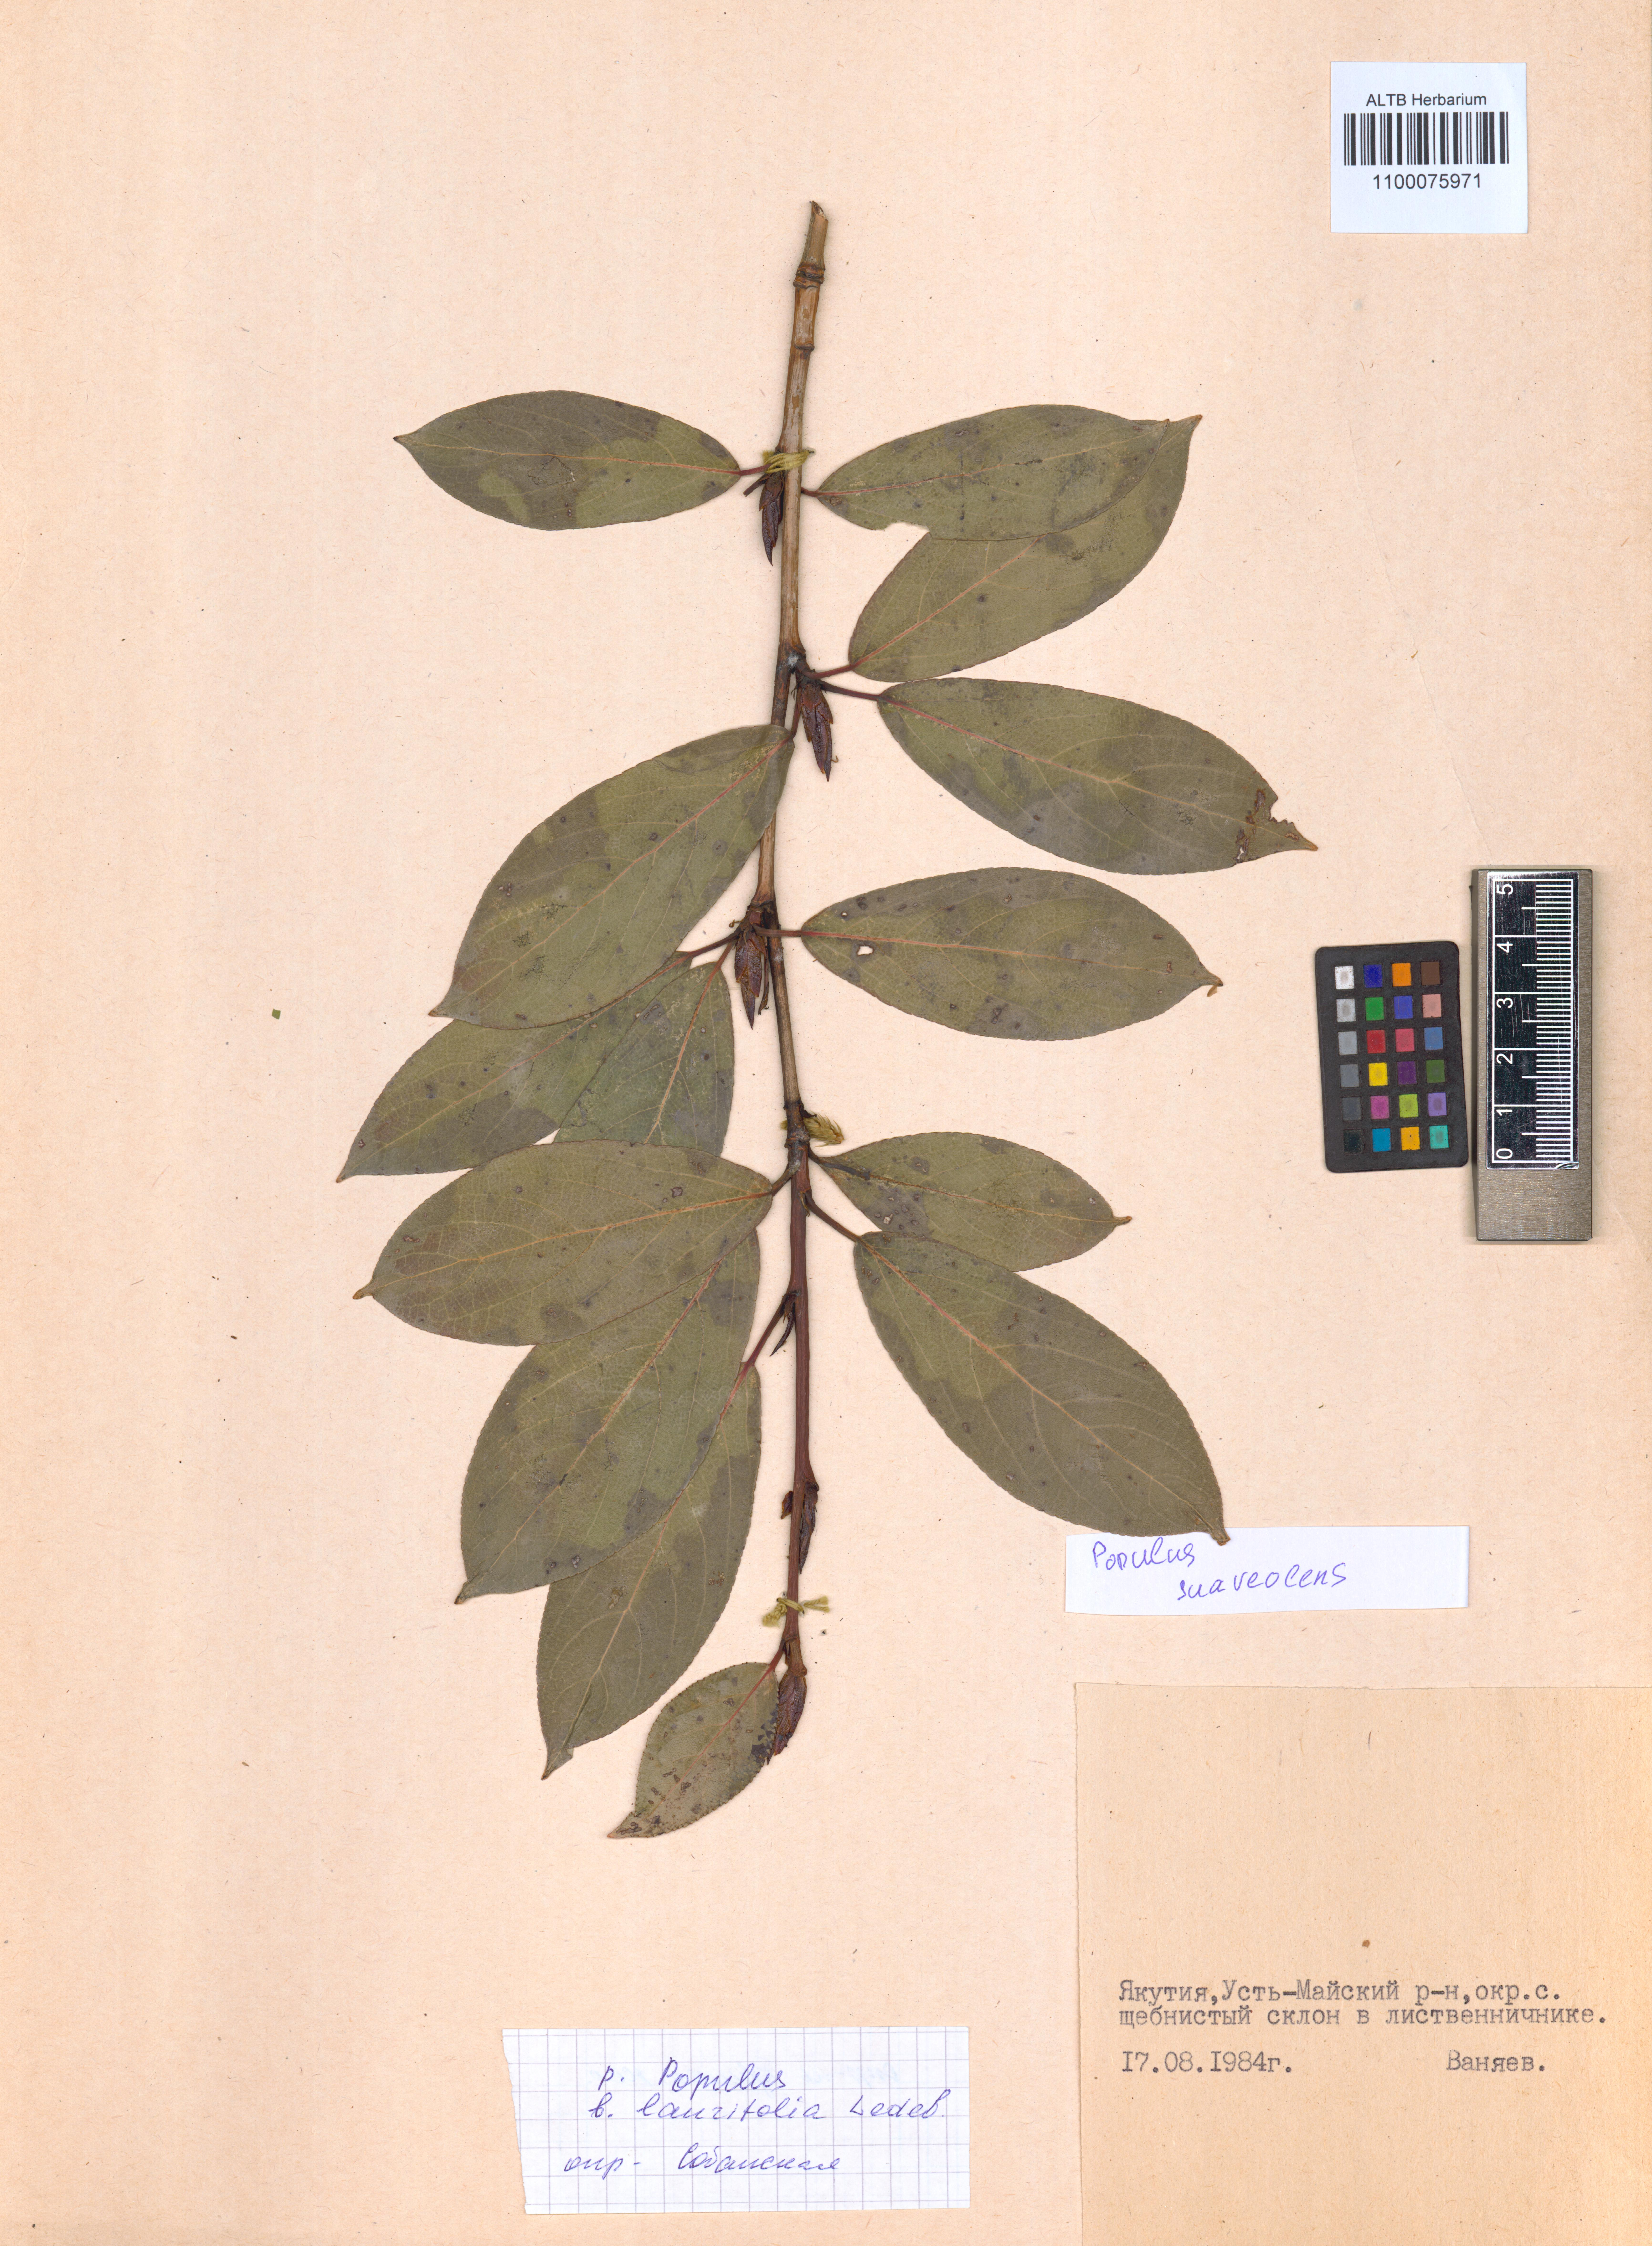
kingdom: Plantae
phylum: Tracheophyta
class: Magnoliopsida
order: Malpighiales
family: Salicaceae
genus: Populus
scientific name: Populus suaveolens
